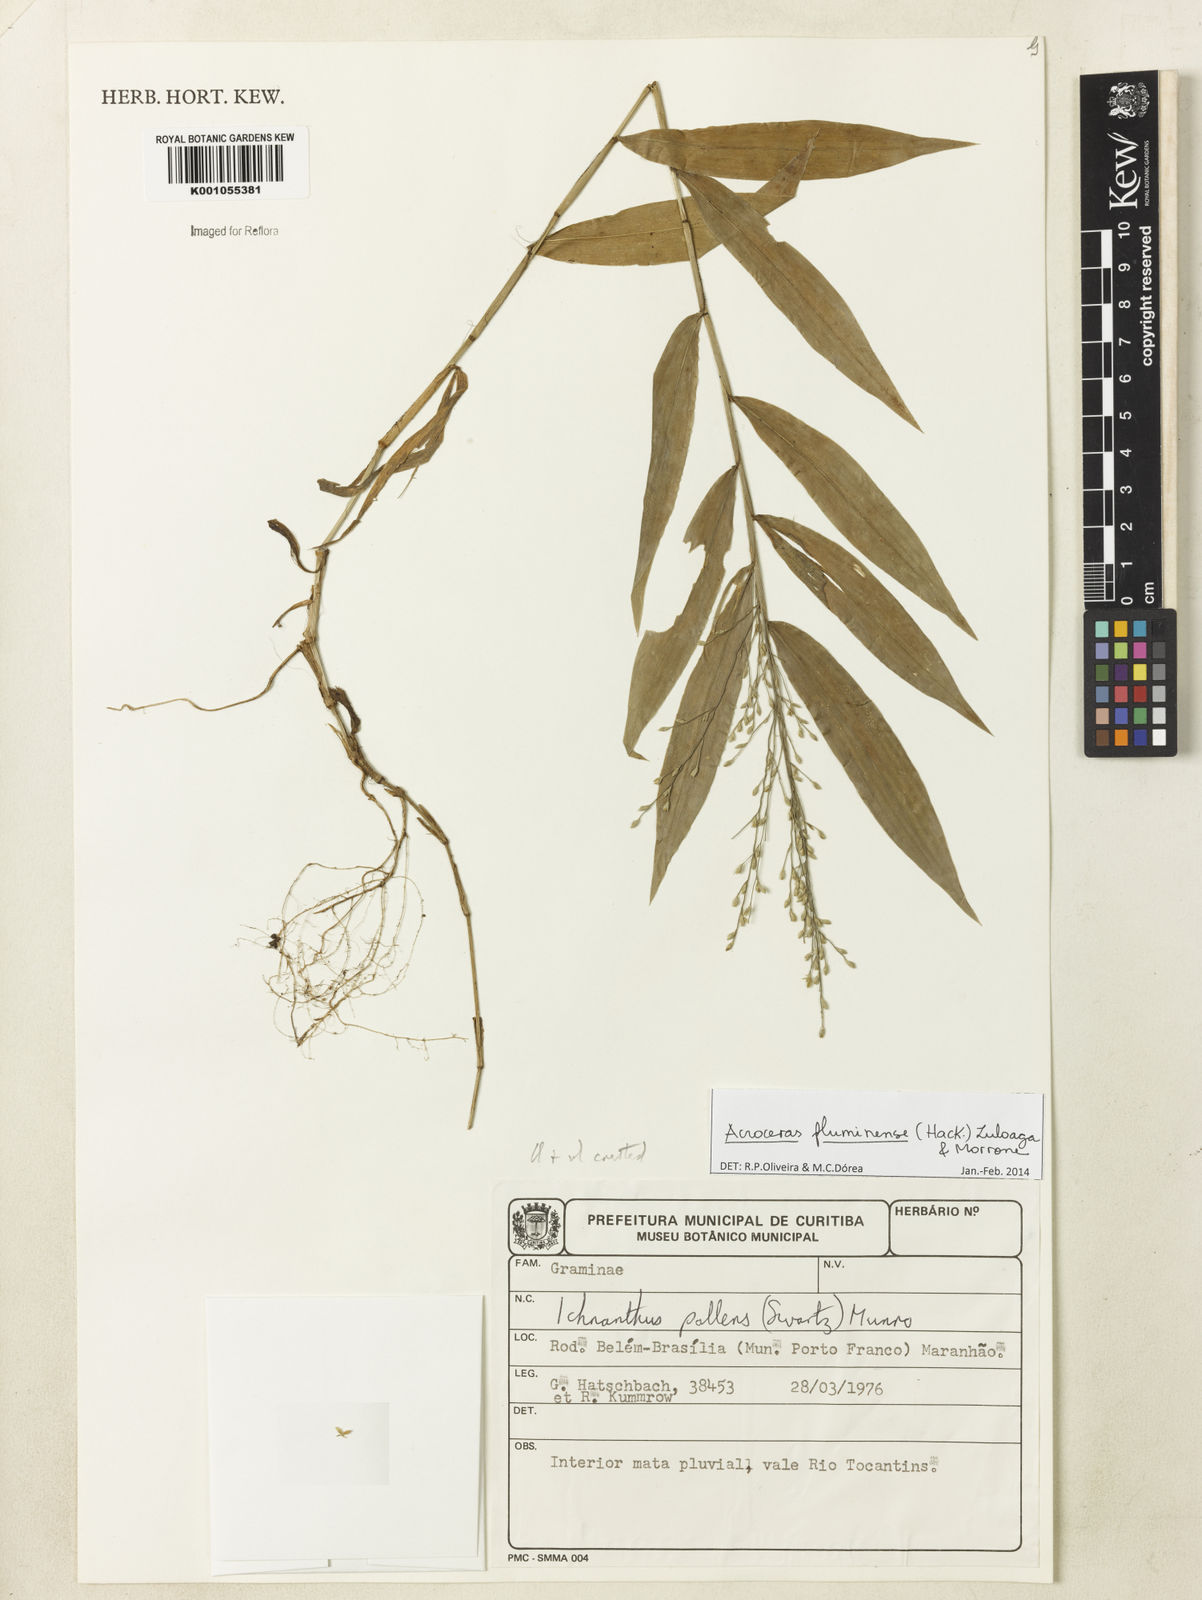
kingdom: Plantae
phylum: Tracheophyta
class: Liliopsida
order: Poales
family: Poaceae
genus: Acroceras
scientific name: Acroceras fluminense
